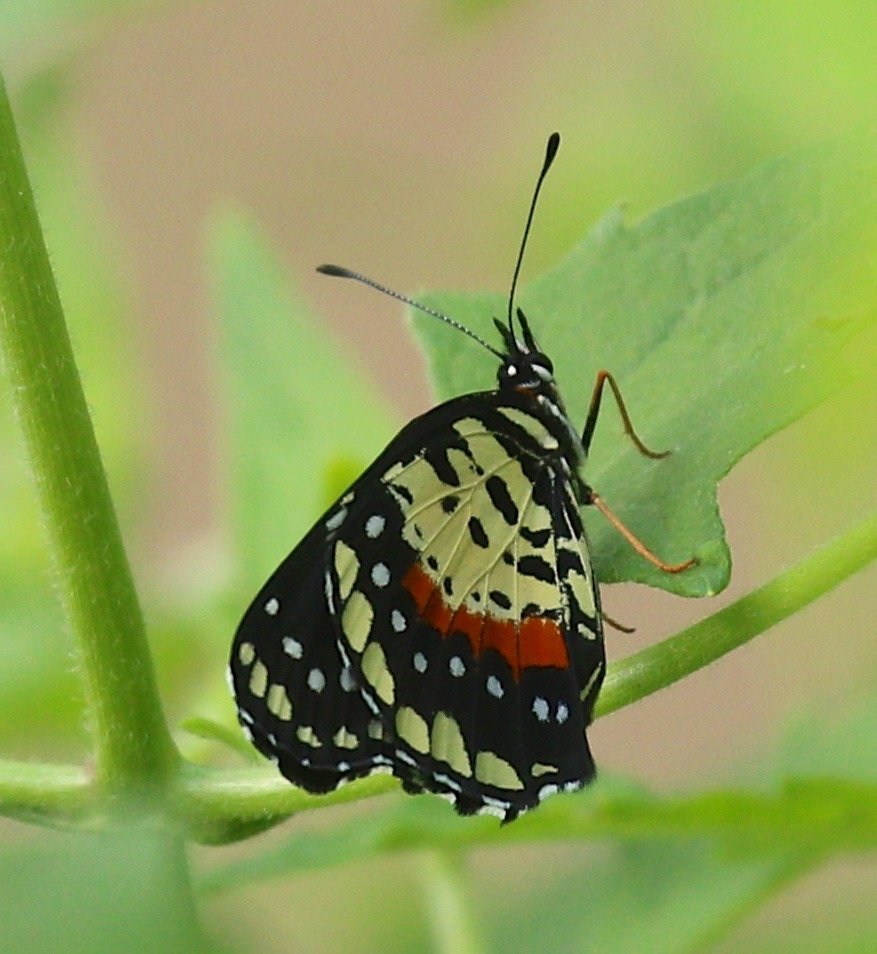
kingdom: Animalia
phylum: Arthropoda
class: Insecta
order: Lepidoptera
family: Nymphalidae
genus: Chlosyne
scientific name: Chlosyne janais
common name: Crimson Patch
